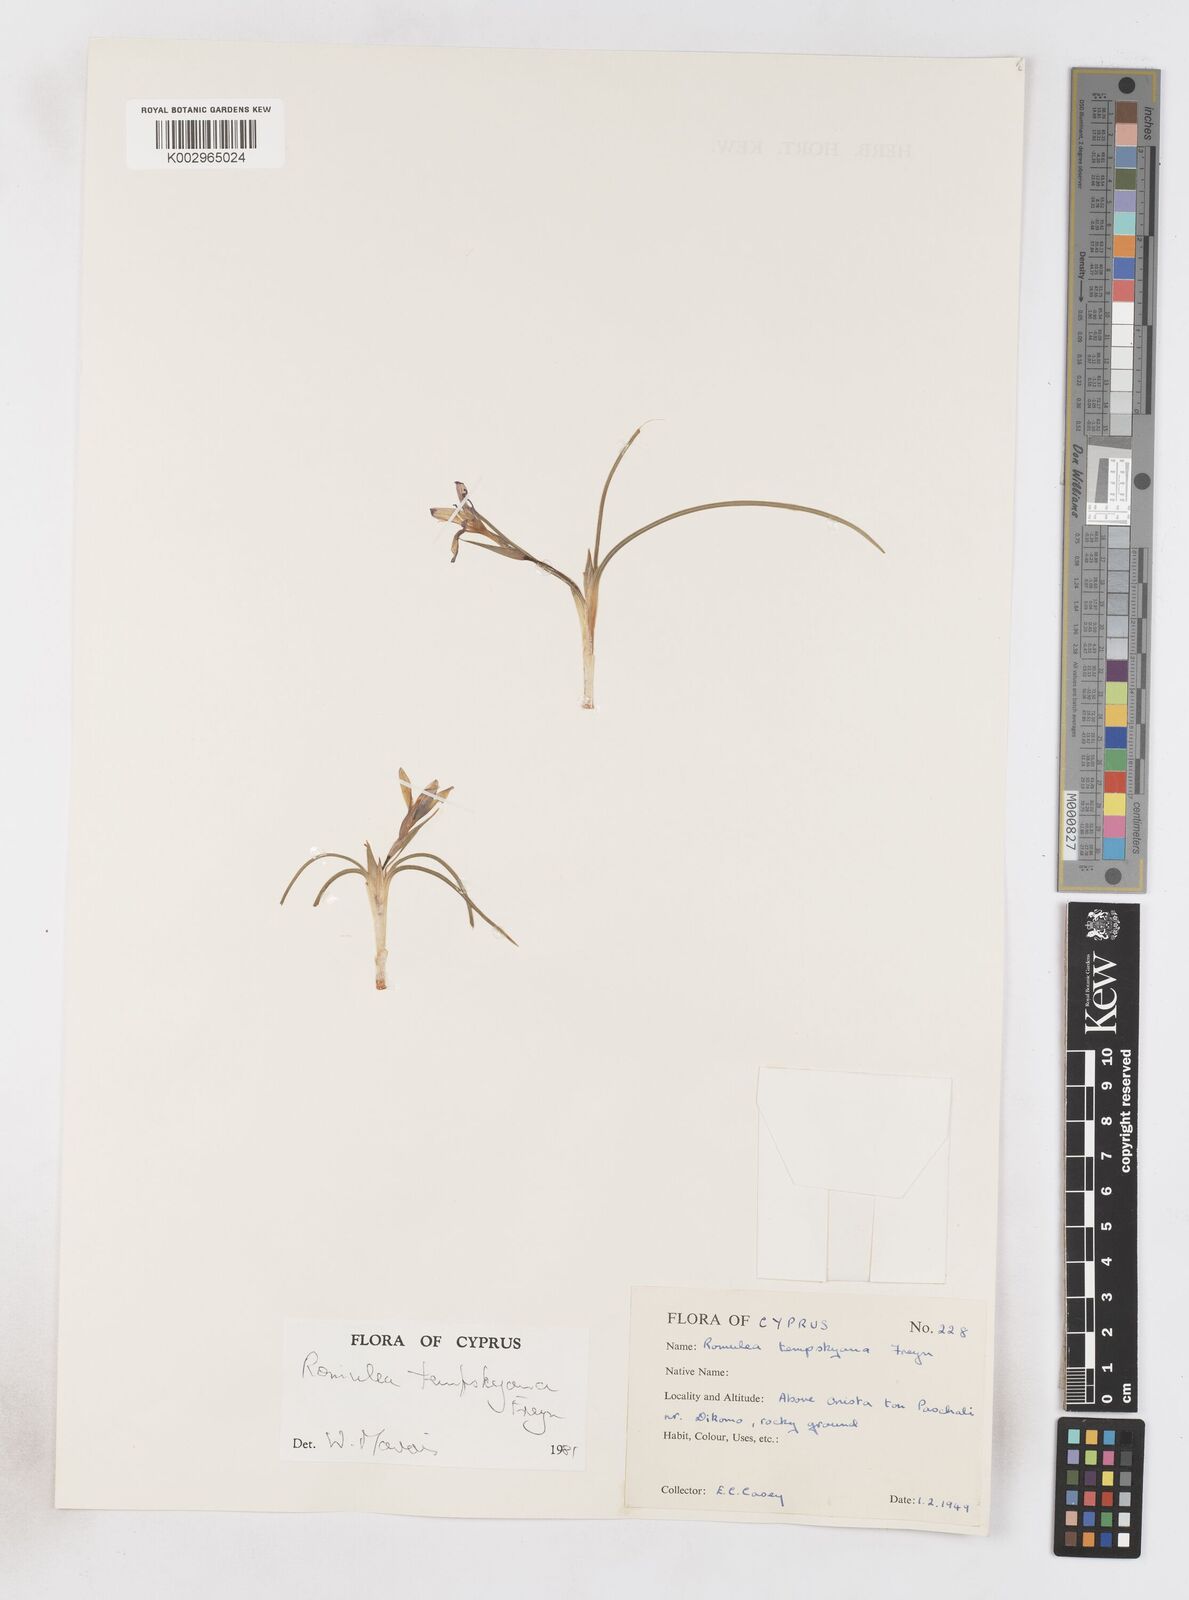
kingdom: Plantae
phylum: Tracheophyta
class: Liliopsida
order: Asparagales
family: Iridaceae
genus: Romulea
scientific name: Romulea tempskyana
